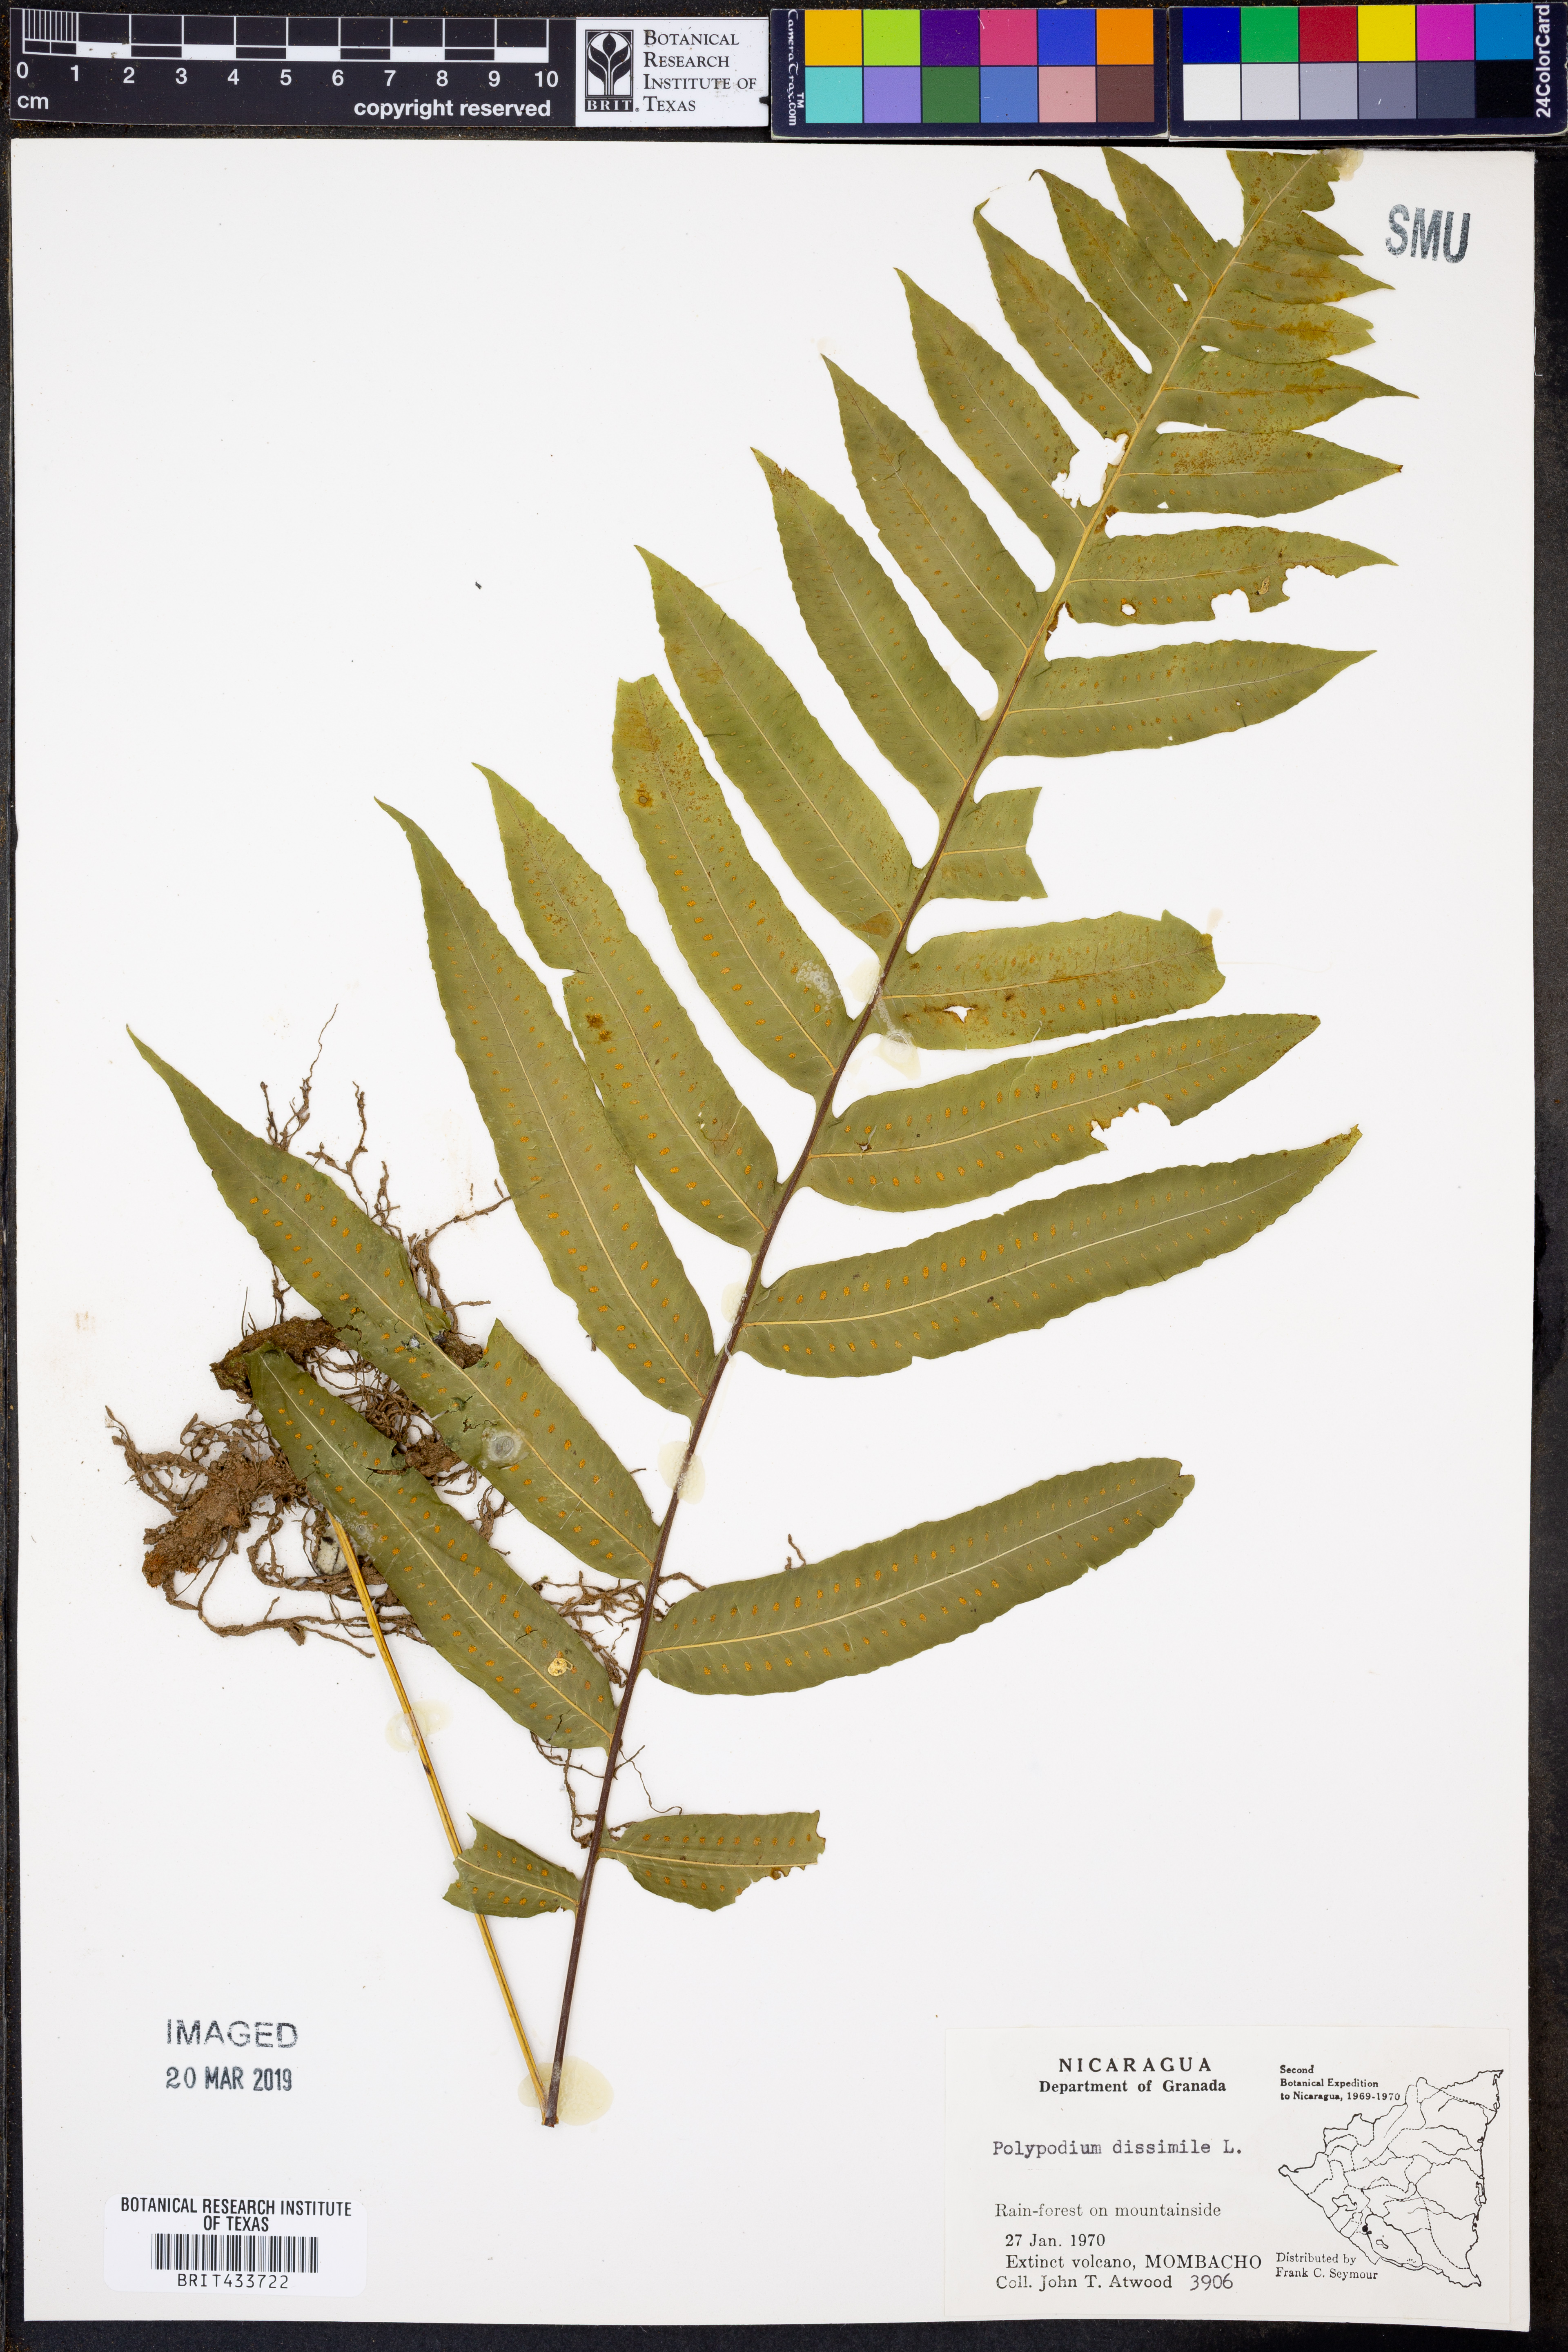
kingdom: Plantae
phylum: Tracheophyta
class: Polypodiopsida
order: Polypodiales
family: Polypodiaceae
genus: Serpocaulon
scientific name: Serpocaulon dissimile
